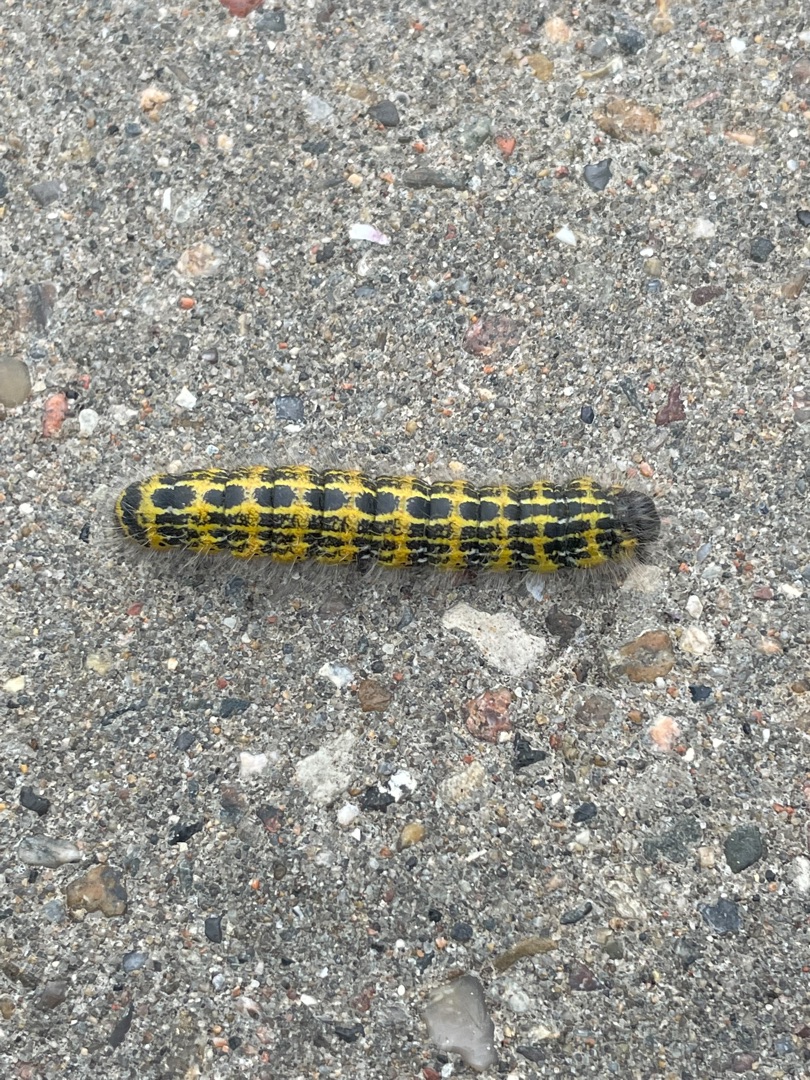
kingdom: Animalia
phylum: Arthropoda
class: Insecta
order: Lepidoptera
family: Notodontidae
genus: Phalera
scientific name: Phalera bucephala
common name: Måneplet
